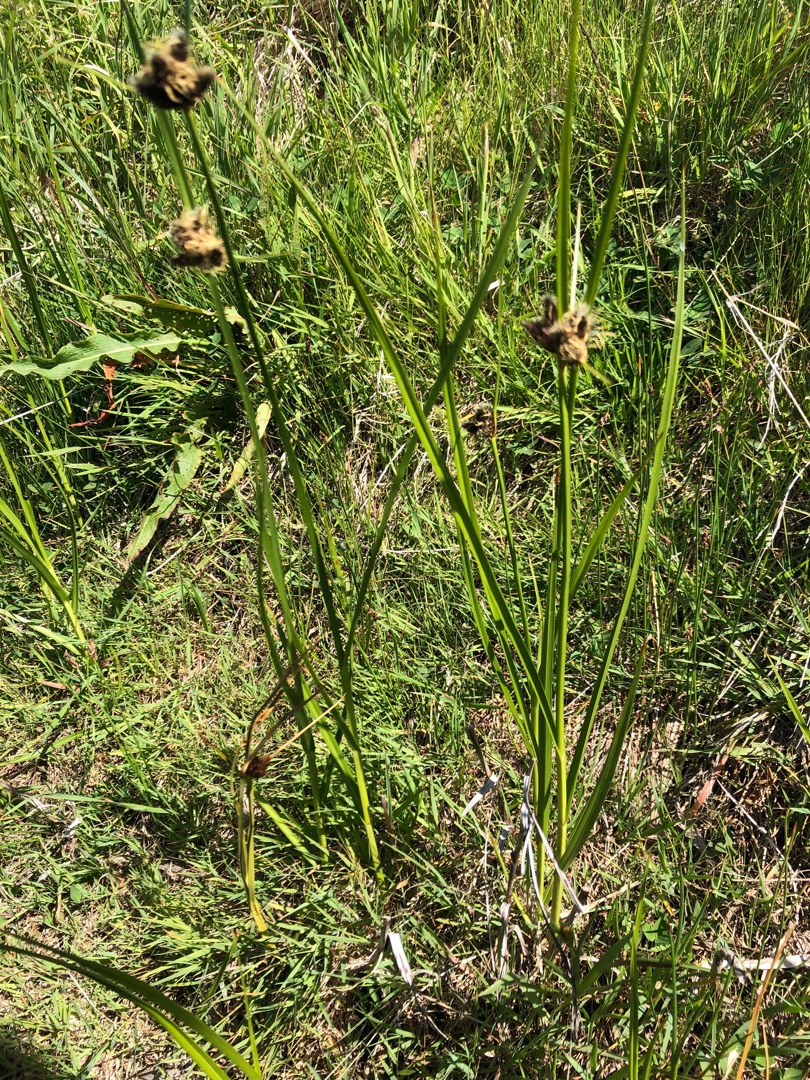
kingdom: Plantae
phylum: Tracheophyta
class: Liliopsida
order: Poales
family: Cyperaceae
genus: Bolboschoenus
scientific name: Bolboschoenus maritimus
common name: Strand-kogleaks
